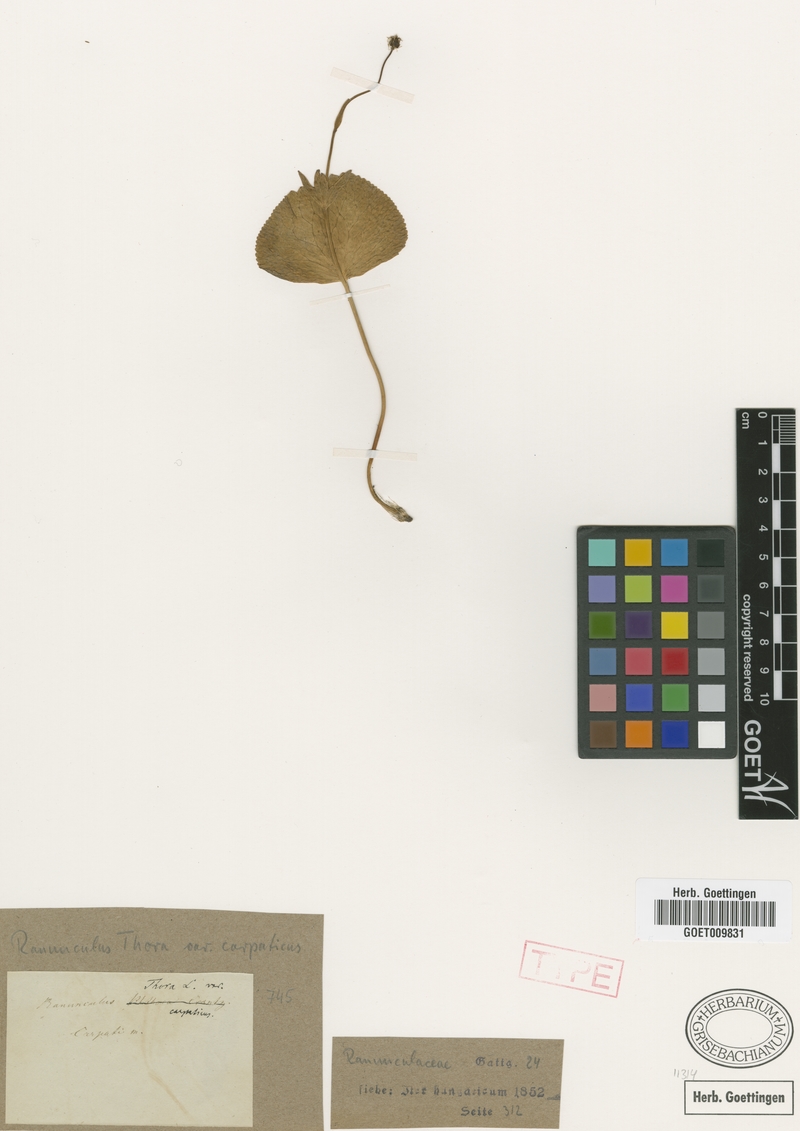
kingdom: Plantae
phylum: Tracheophyta
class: Magnoliopsida
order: Ranunculales
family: Ranunculaceae
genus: Ranunculus
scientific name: Ranunculus thora
